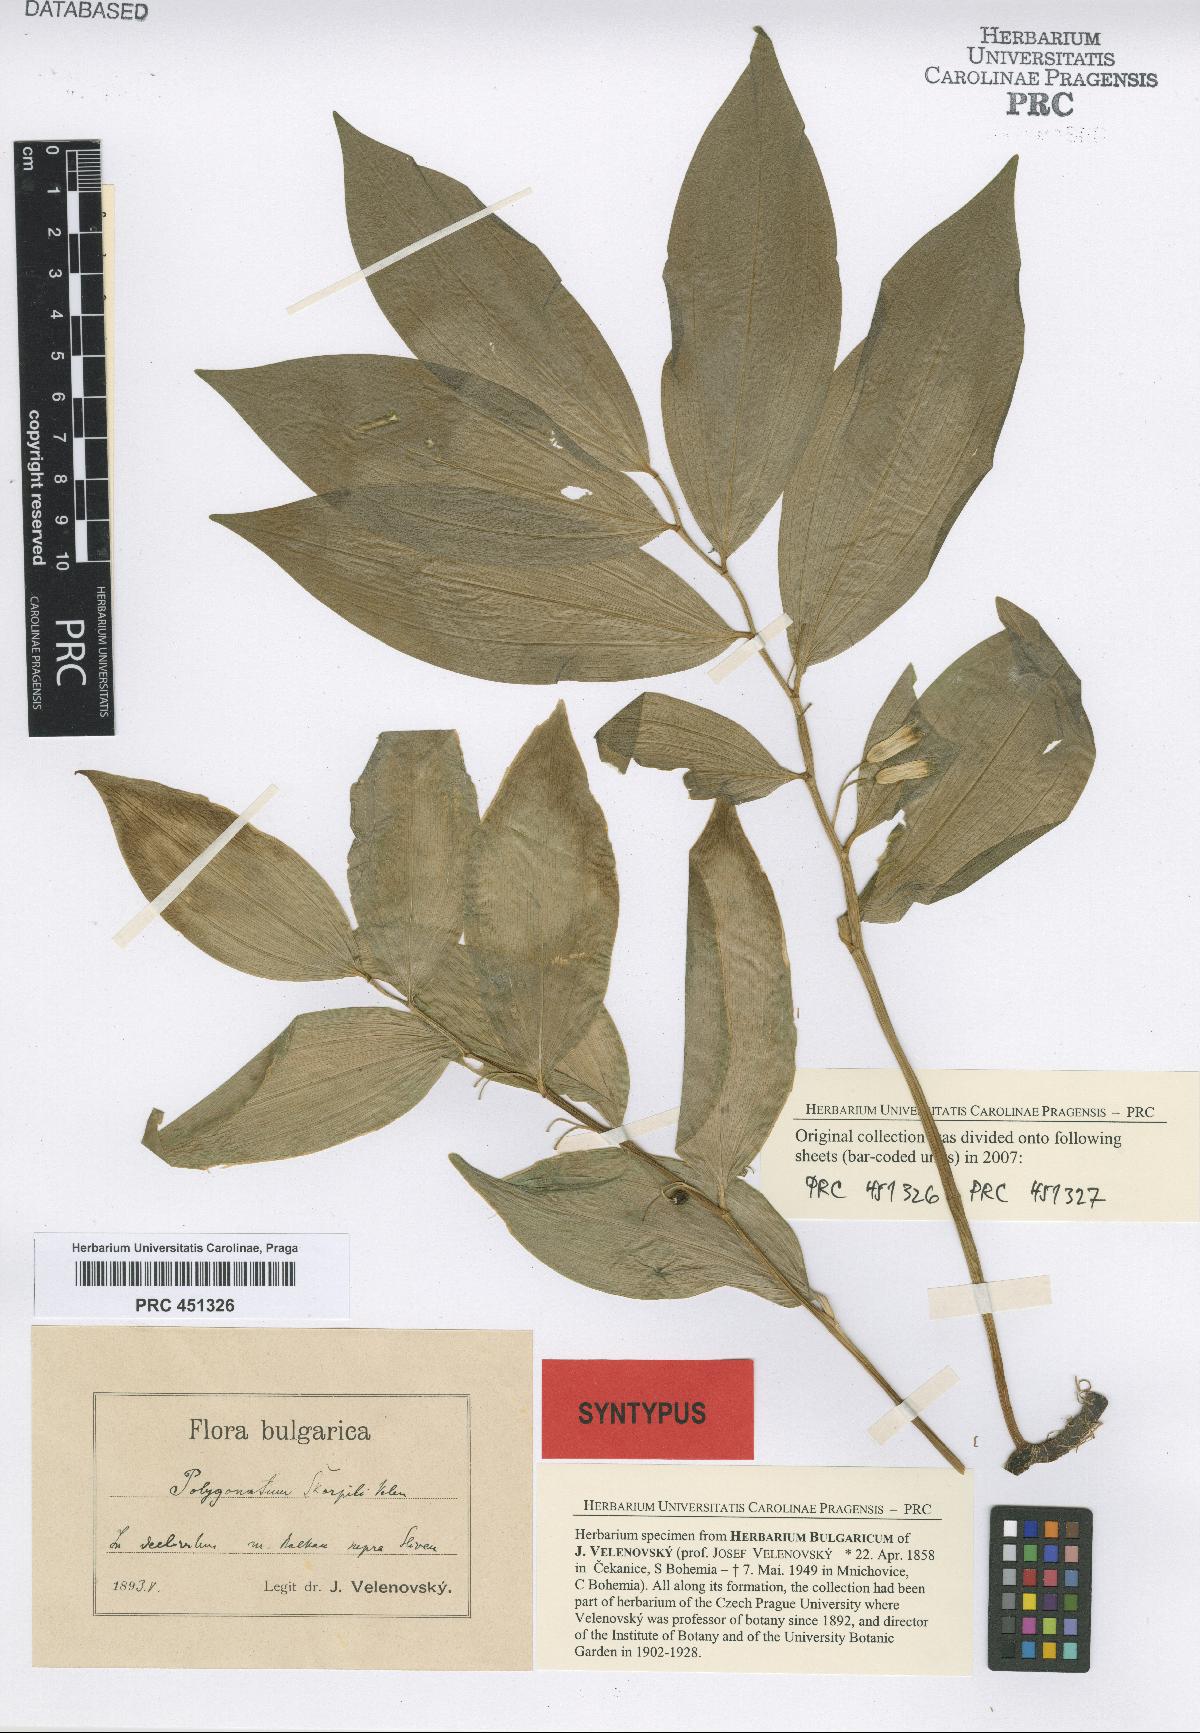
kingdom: Plantae
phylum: Tracheophyta
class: Liliopsida
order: Asparagales
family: Asparagaceae
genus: Polygonatum
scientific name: Polygonatum latifolium
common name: Broadleaf solomon's seal
